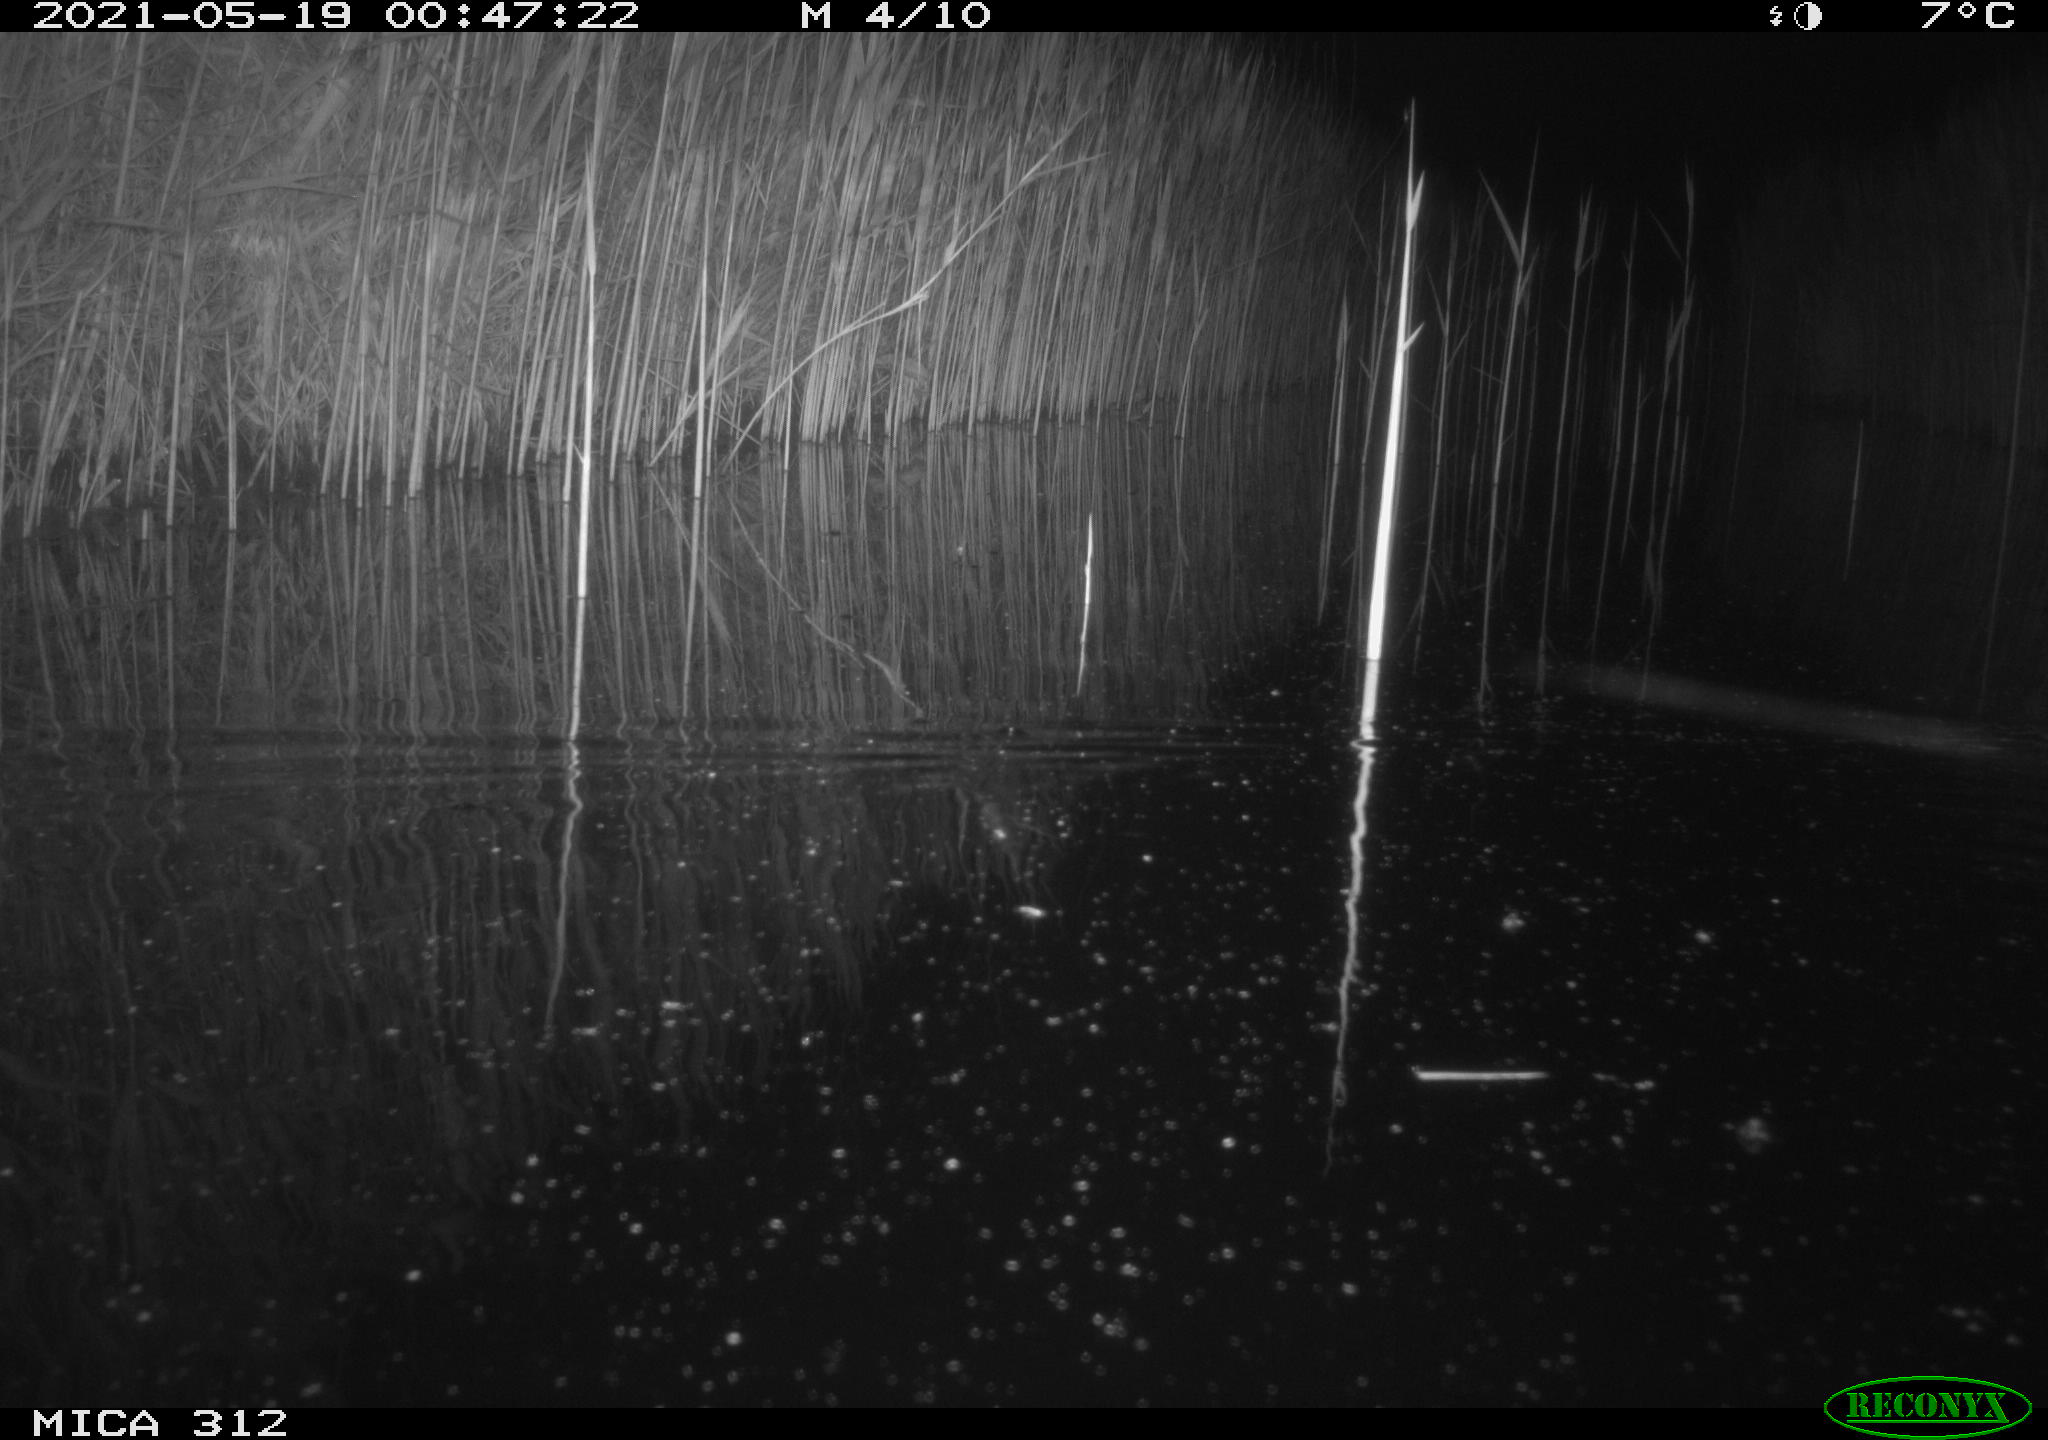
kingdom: Animalia
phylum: Chordata
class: Mammalia
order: Rodentia
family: Muridae
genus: Rattus
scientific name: Rattus norvegicus
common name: Brown rat
